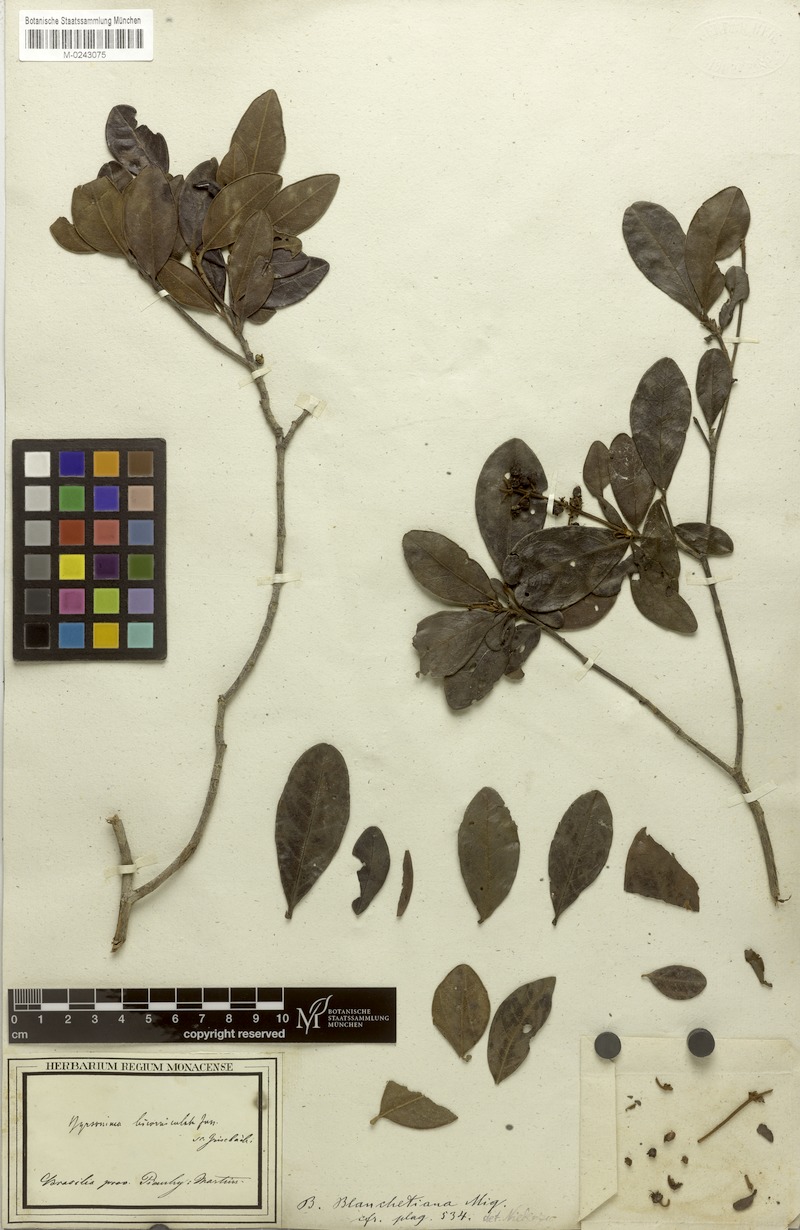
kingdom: Plantae
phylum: Tracheophyta
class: Magnoliopsida
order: Malpighiales
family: Malpighiaceae
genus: Byrsonima
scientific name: Byrsonima bicorniculata
